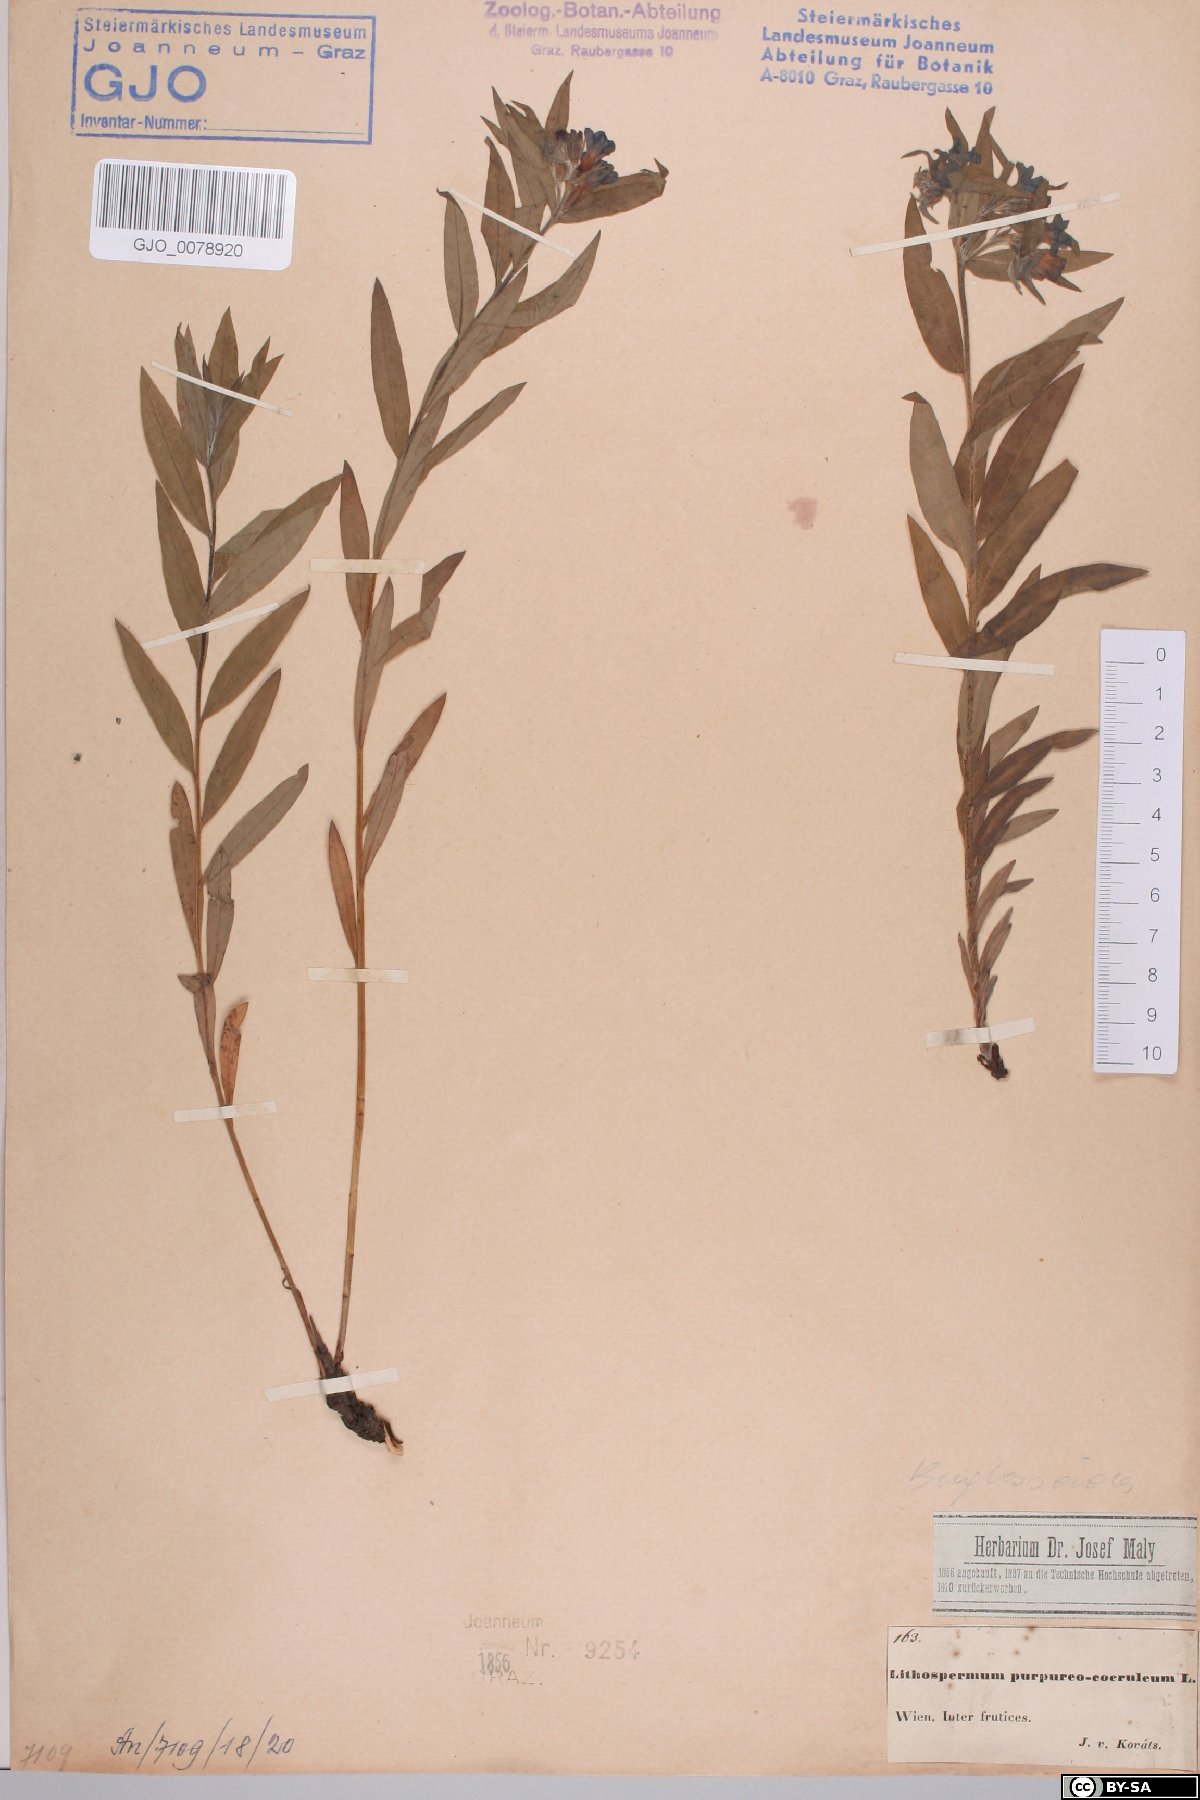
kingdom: Plantae
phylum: Tracheophyta
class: Magnoliopsida
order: Boraginales
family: Boraginaceae
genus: Aegonychon
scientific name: Aegonychon purpurocaeruleum
